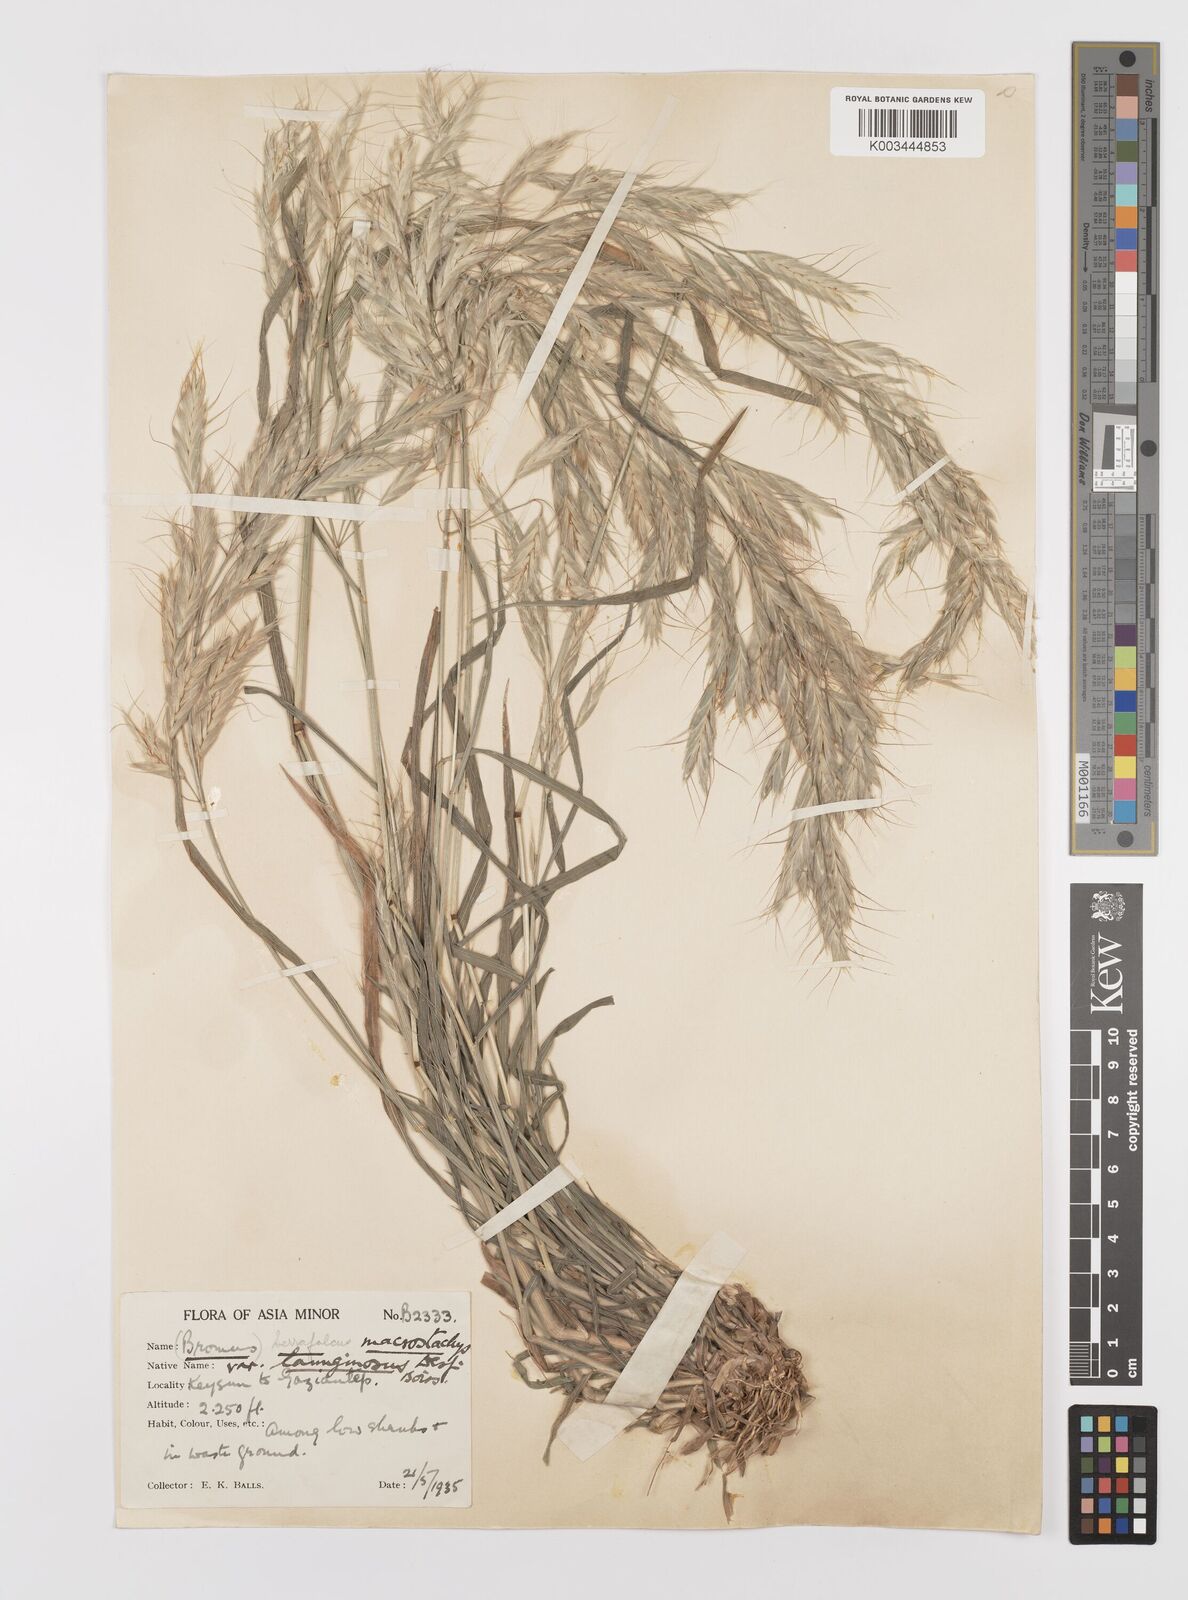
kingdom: Plantae
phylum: Tracheophyta
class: Liliopsida
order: Poales
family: Poaceae
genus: Bromus
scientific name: Bromus lanceolatus
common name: Mediterranean brome
